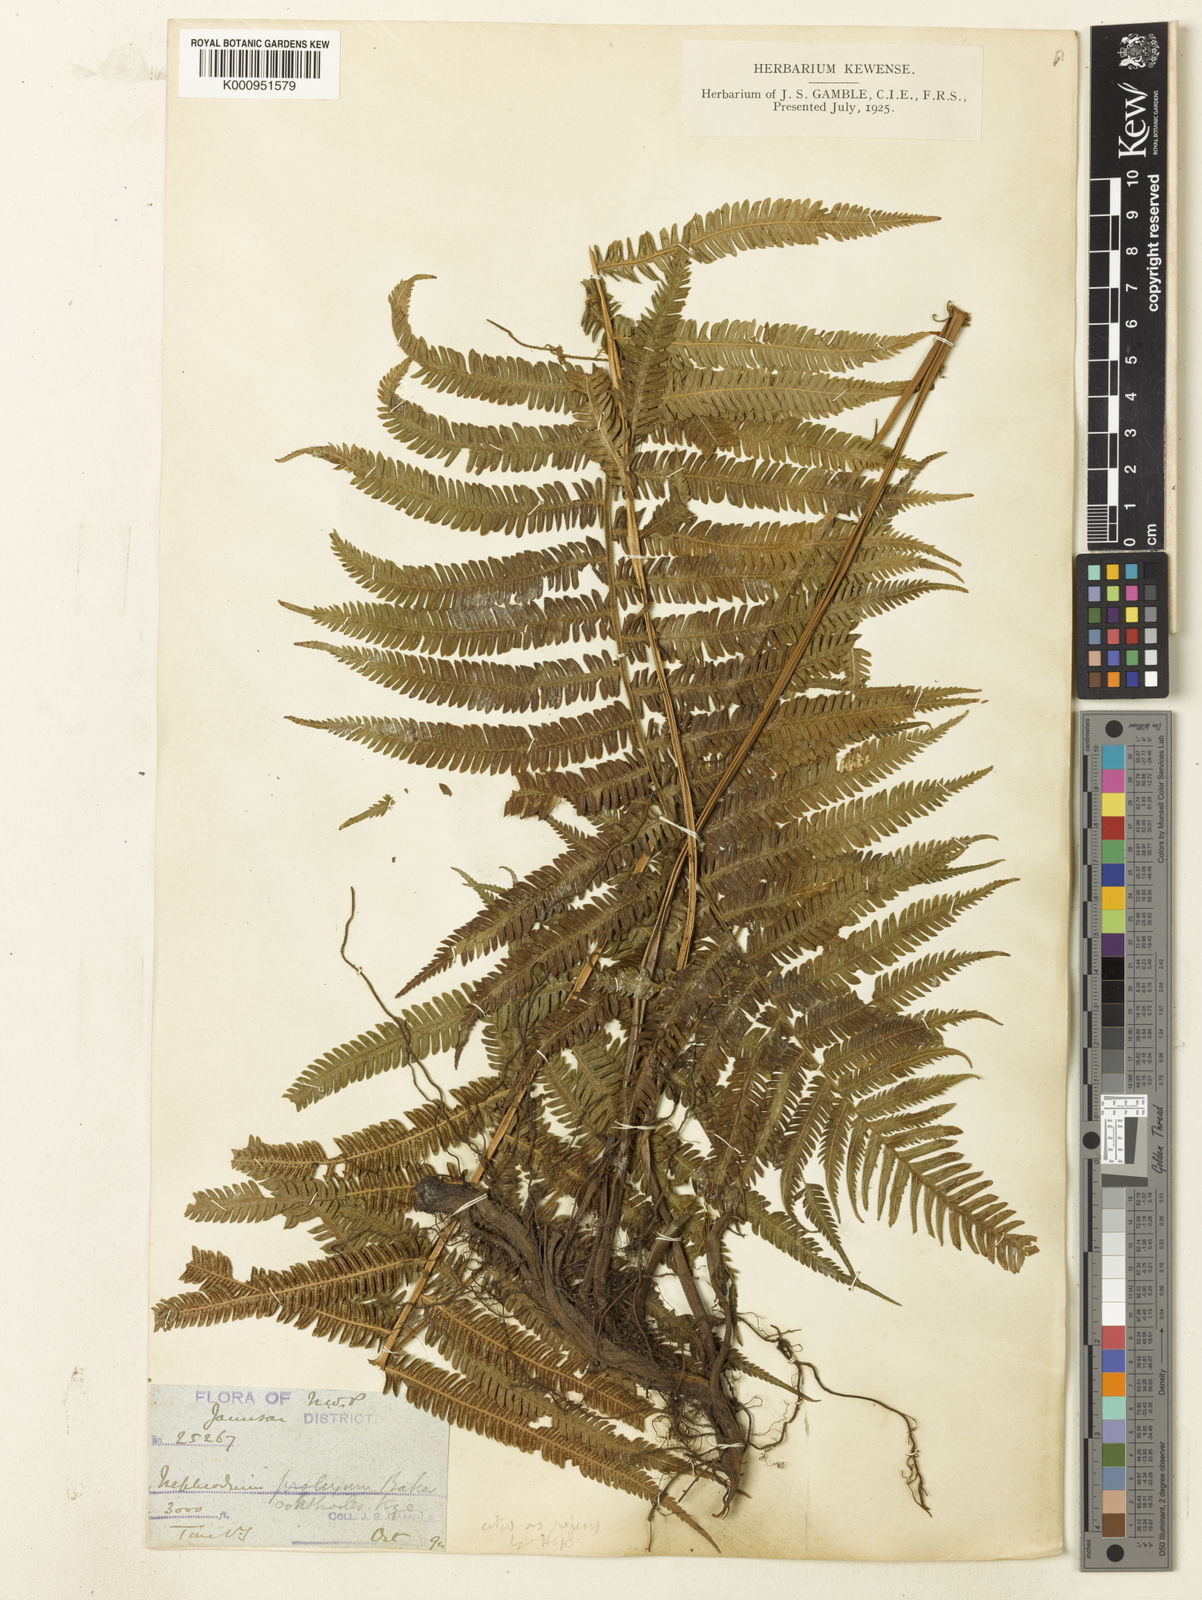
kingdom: Plantae
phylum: Tracheophyta
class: Polypodiopsida
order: Polypodiales
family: Thelypteridaceae
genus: Pseudocyclosorus
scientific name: Pseudocyclosorus canus
